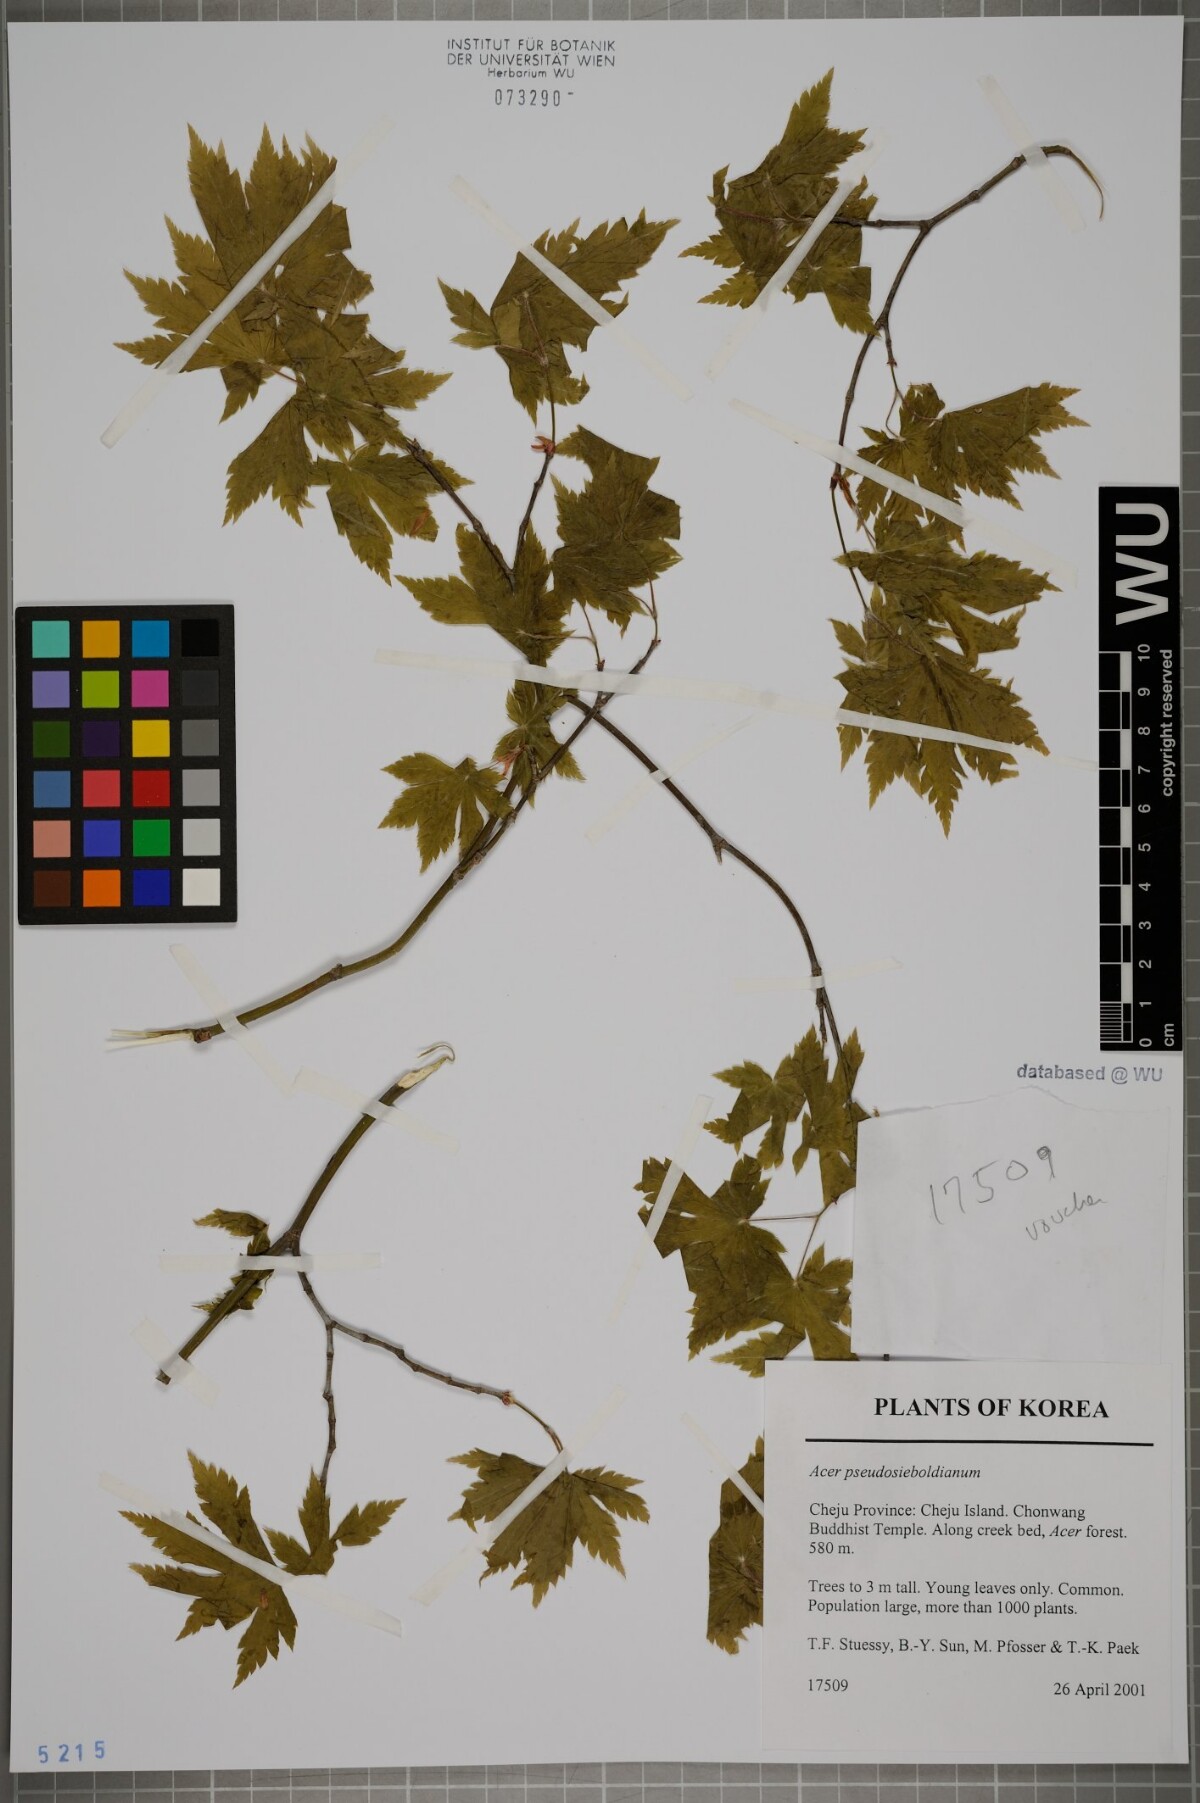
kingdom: Plantae
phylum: Tracheophyta
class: Magnoliopsida
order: Sapindales
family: Sapindaceae
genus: Acer
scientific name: Acer pseudosieboldianum
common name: Korean maple
